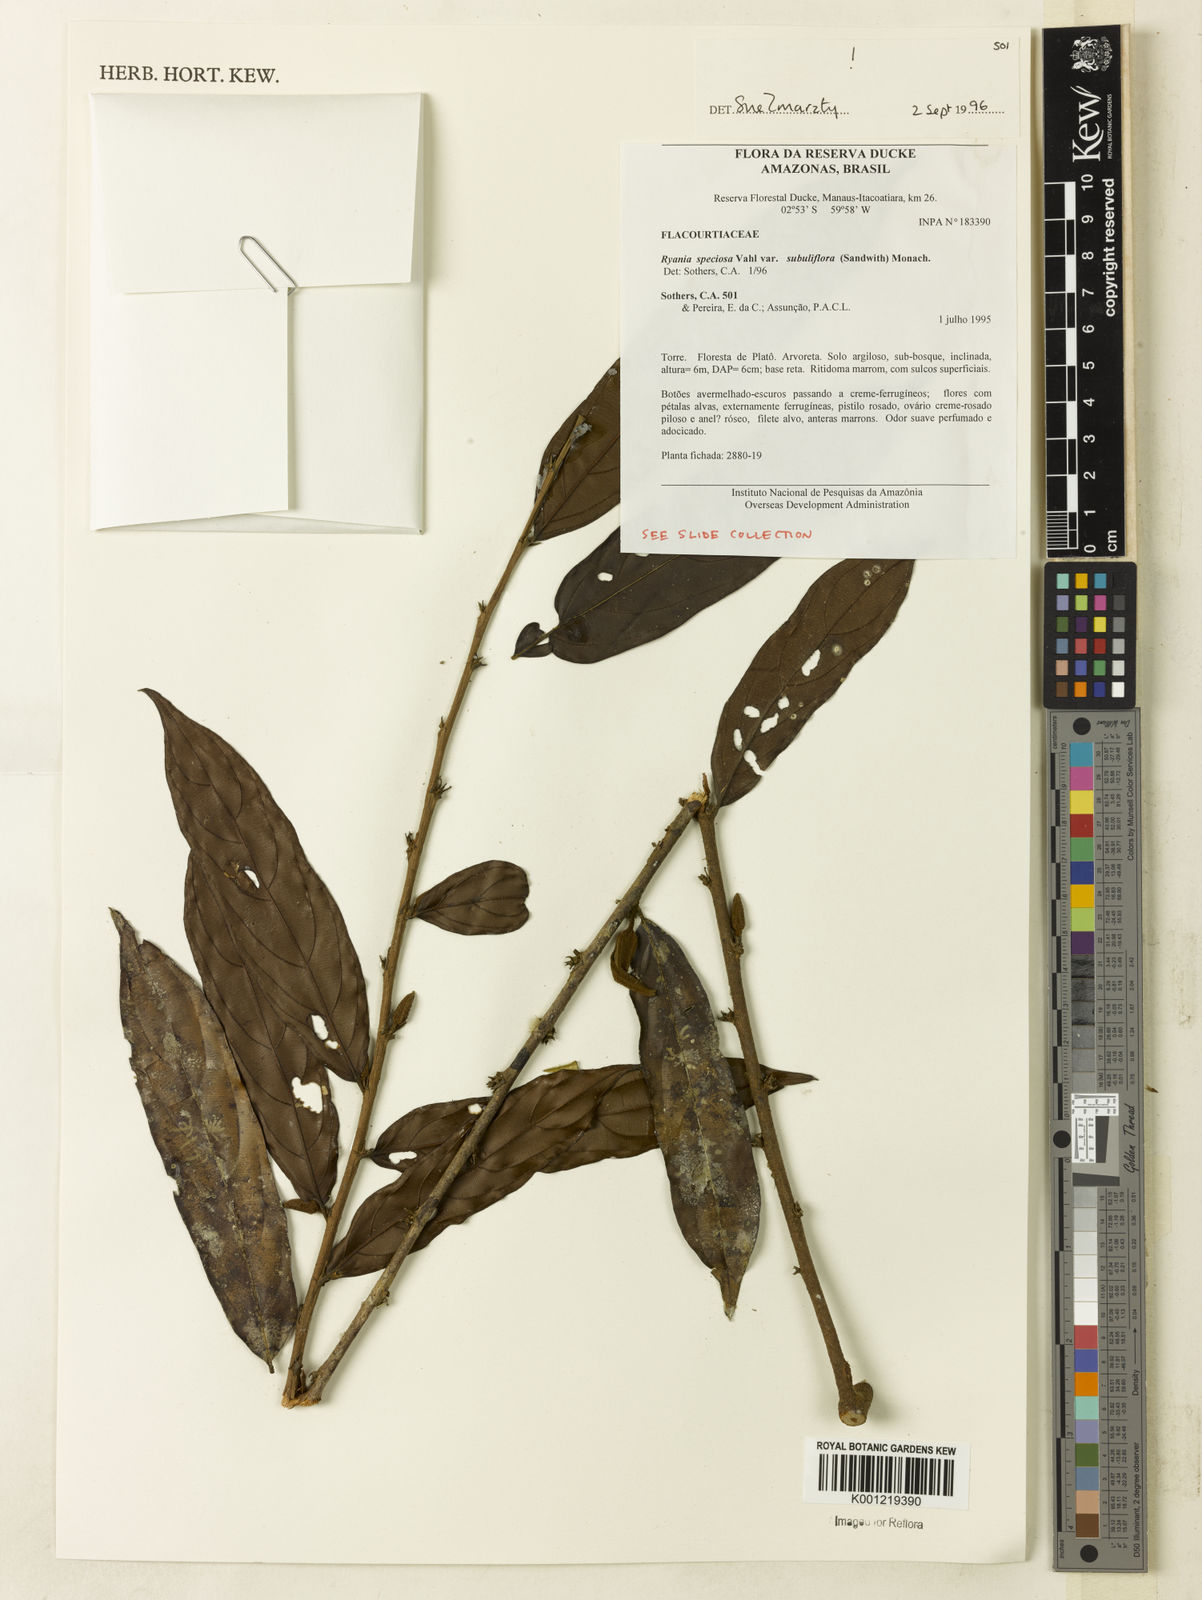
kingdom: Plantae
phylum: Tracheophyta
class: Magnoliopsida
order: Malpighiales
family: Salicaceae
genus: Ryania
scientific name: Ryania speciosa
